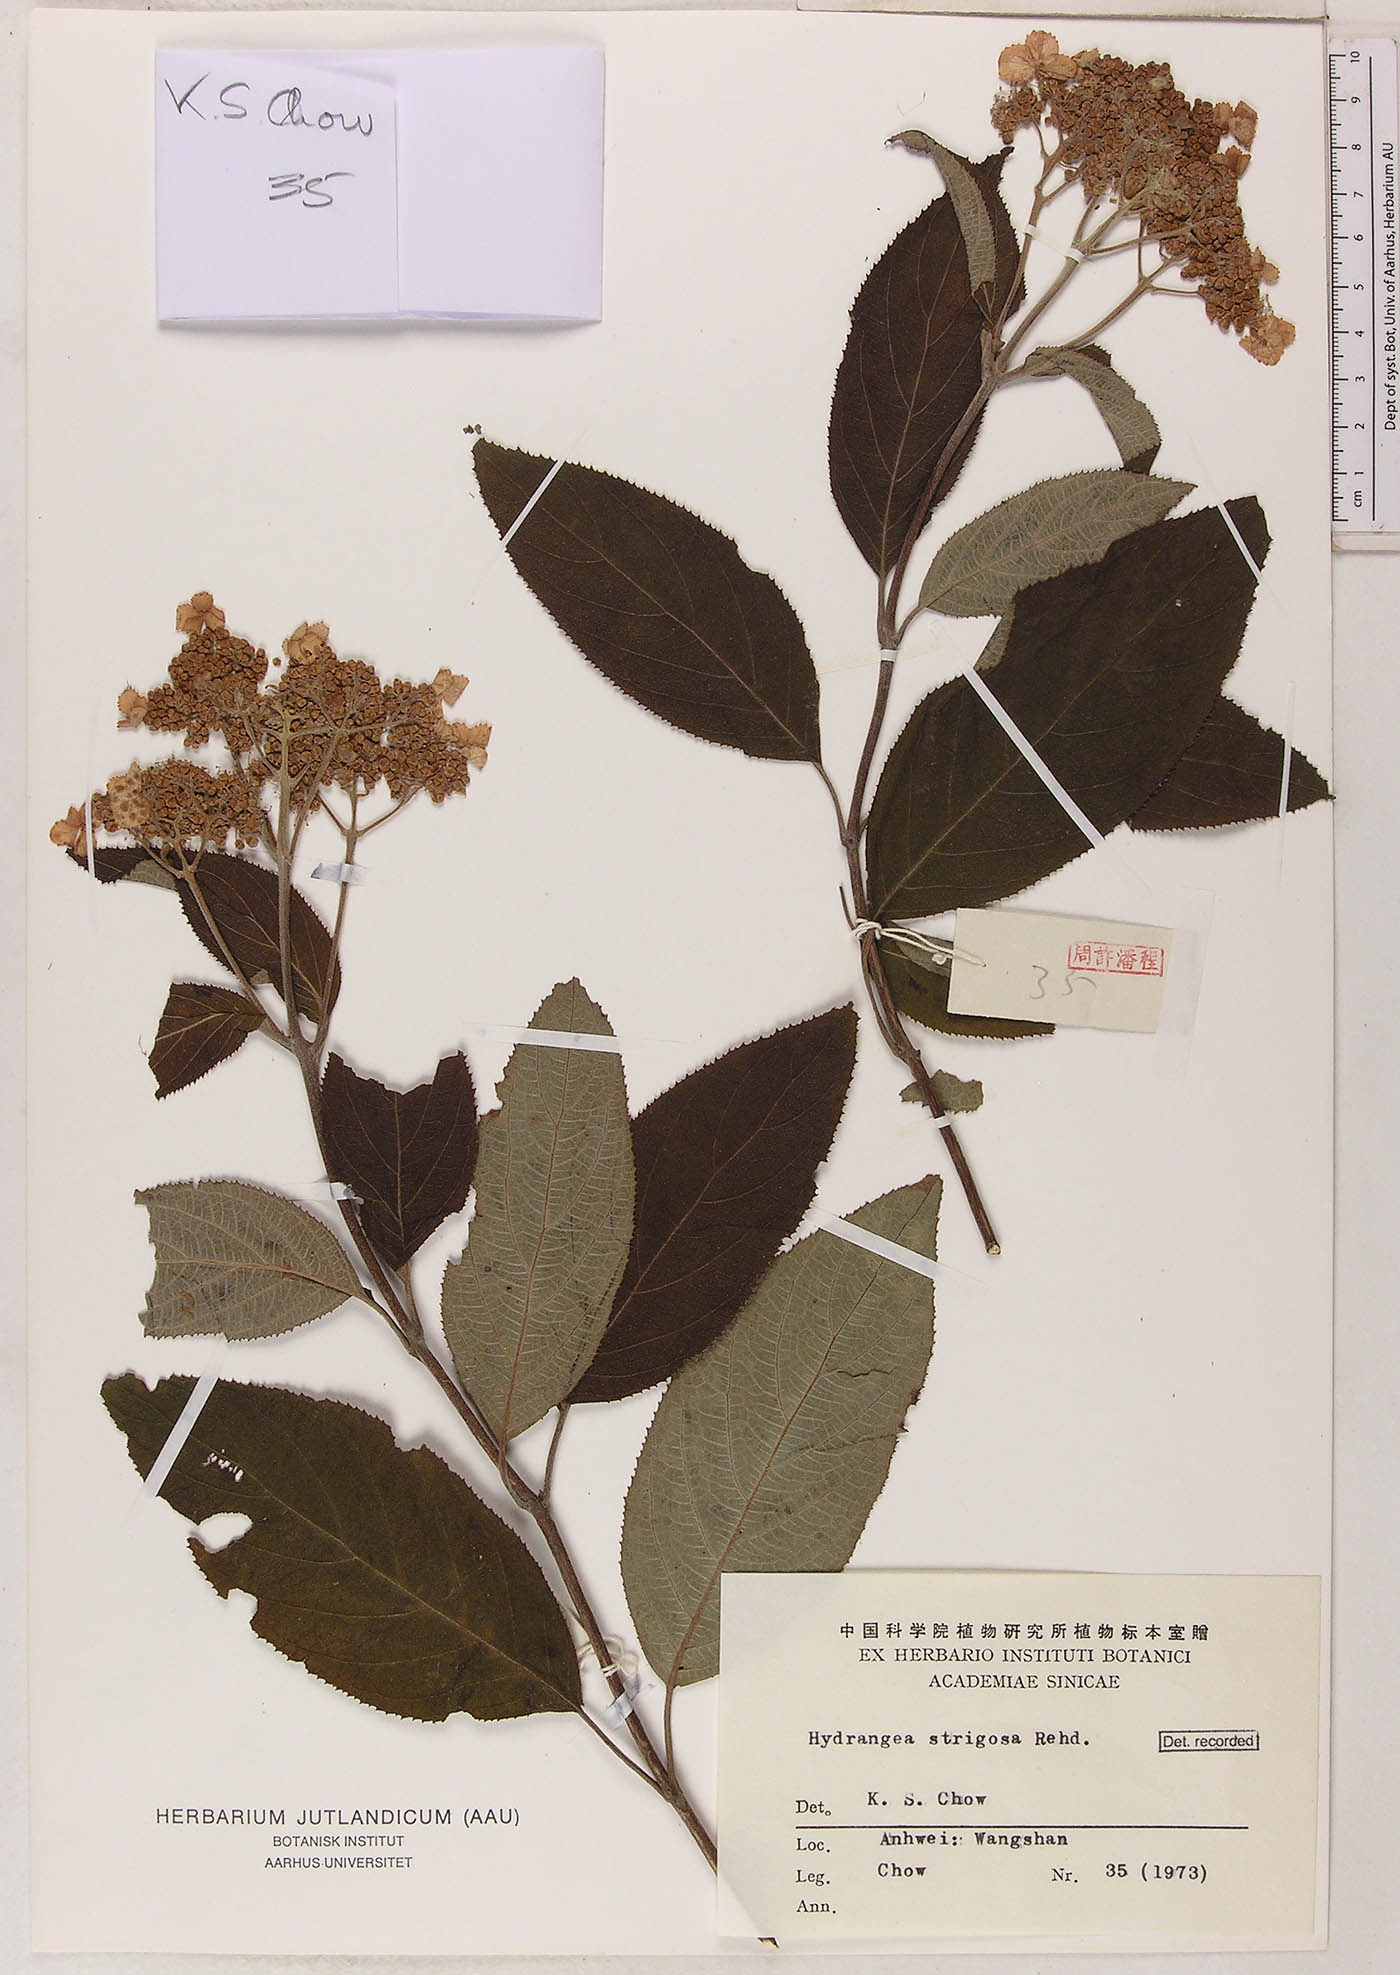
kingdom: Plantae
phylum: Tracheophyta
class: Magnoliopsida
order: Cornales
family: Hydrangeaceae
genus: Hydrangea
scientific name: Hydrangea strigosa
